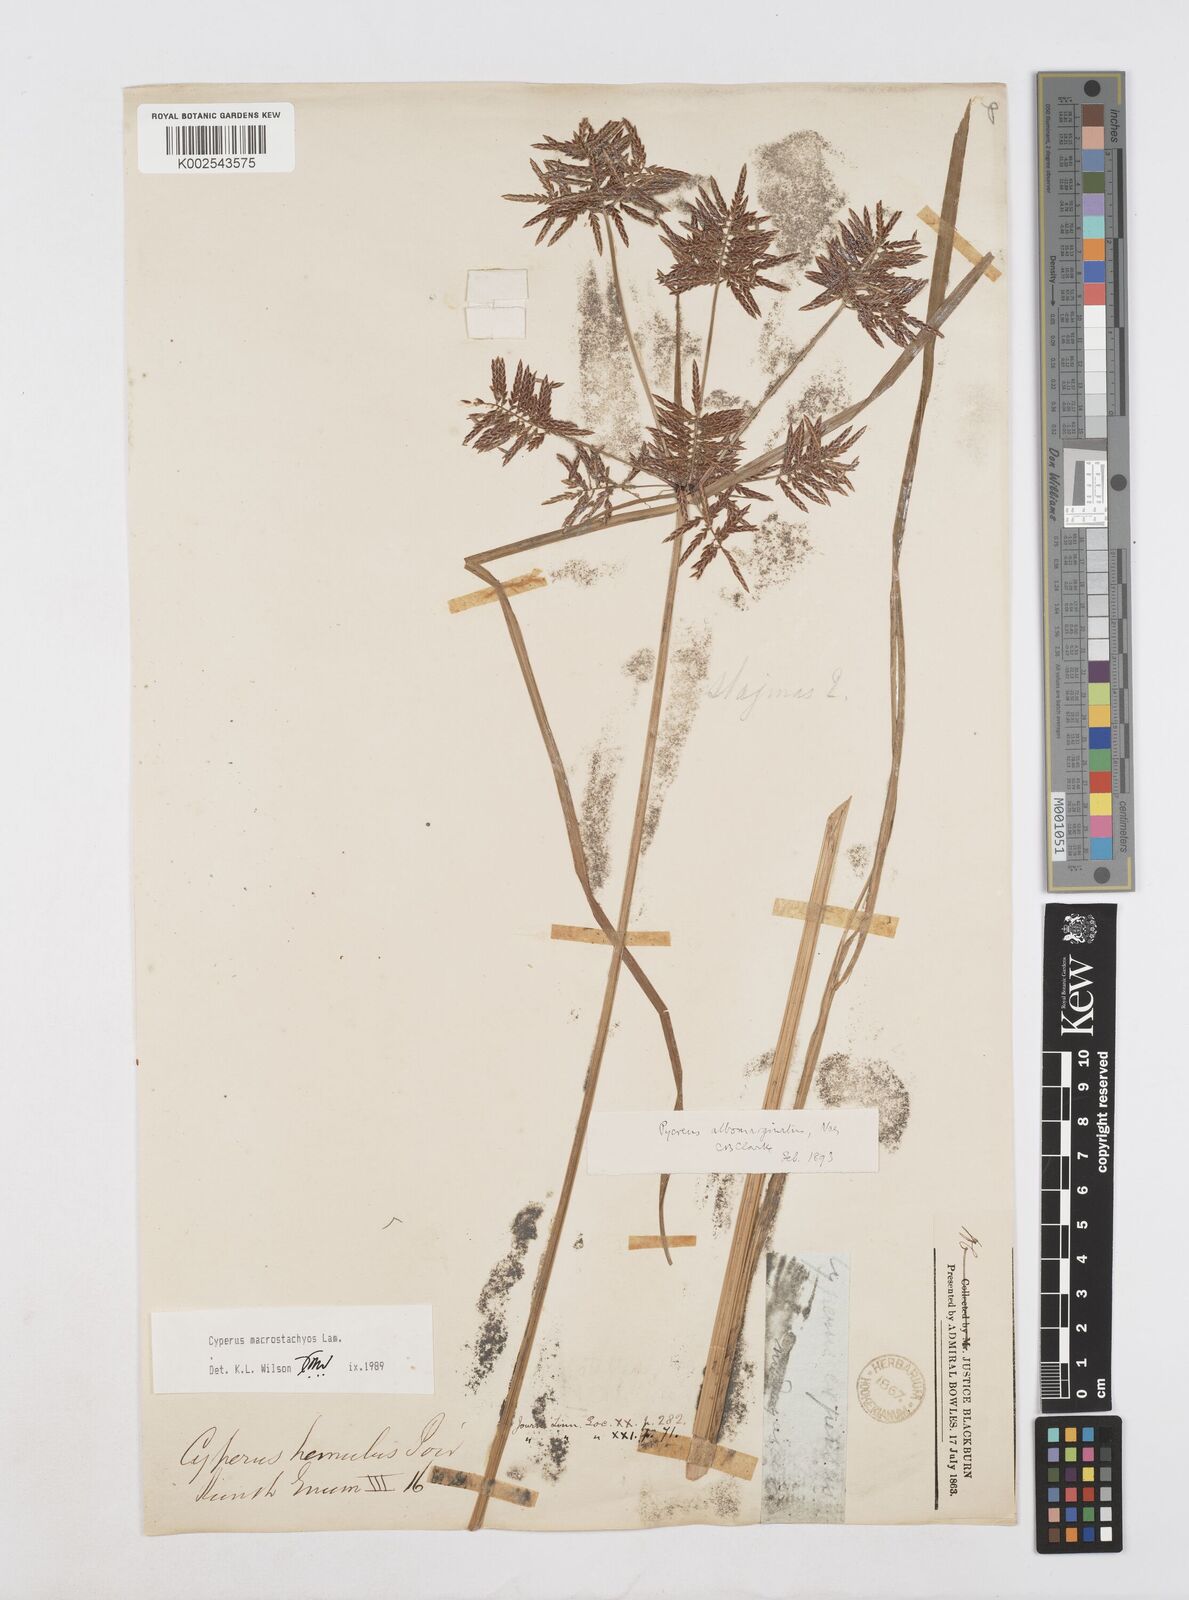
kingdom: Plantae
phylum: Tracheophyta
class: Liliopsida
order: Poales
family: Cyperaceae
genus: Cyperus
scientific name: Cyperus macrostachyos
